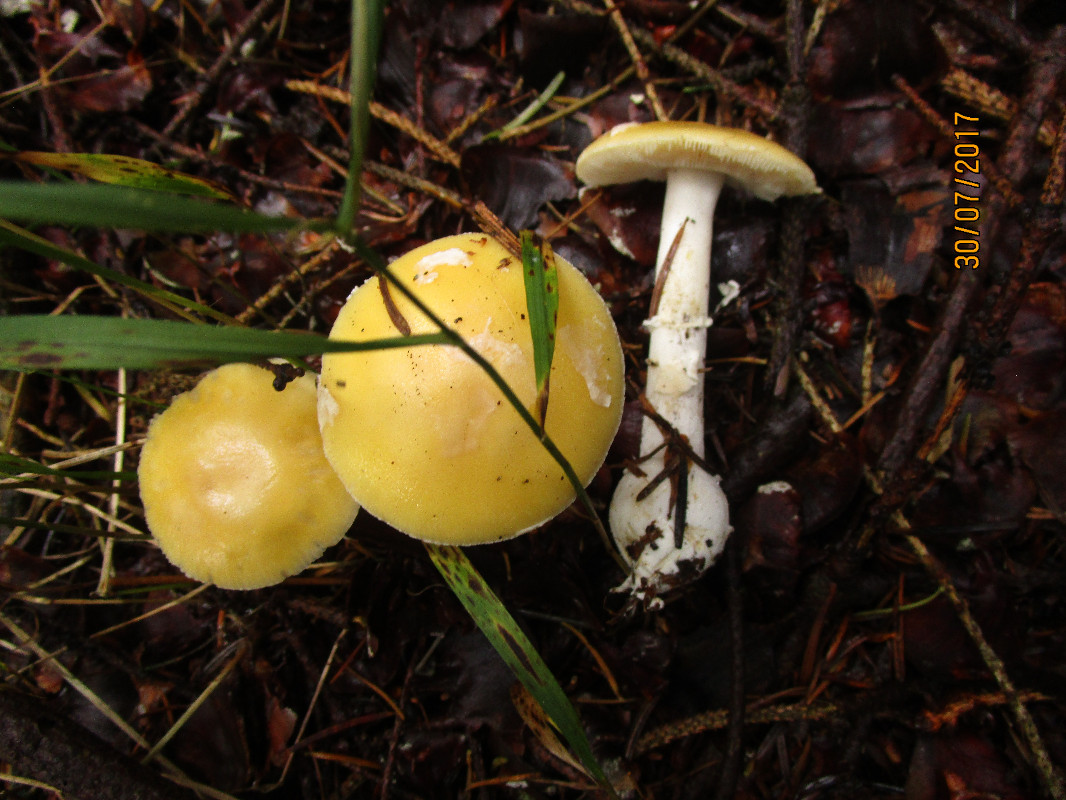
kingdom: Fungi
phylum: Basidiomycota
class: Agaricomycetes
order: Agaricales
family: Amanitaceae
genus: Amanita
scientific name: Amanita gemmata
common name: okkergul fluesvamp
